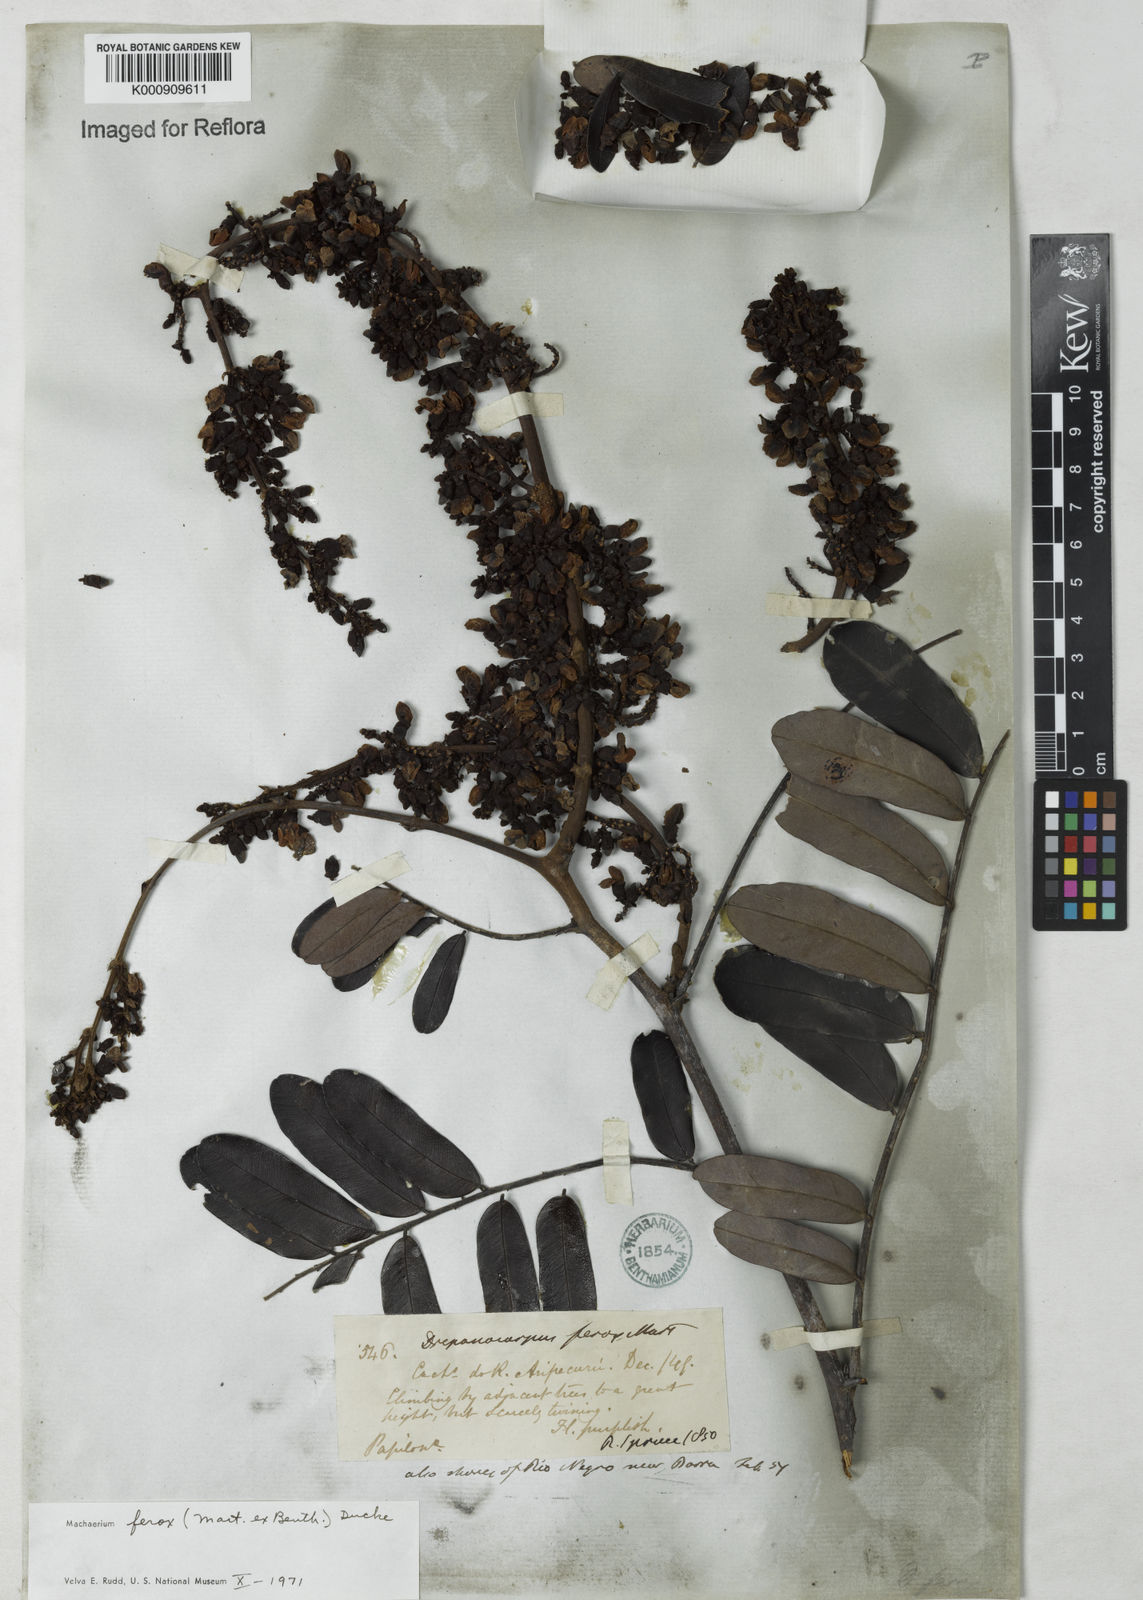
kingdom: Plantae
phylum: Tracheophyta
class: Magnoliopsida
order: Fabales
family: Fabaceae
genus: Machaerium
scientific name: Machaerium ferox
